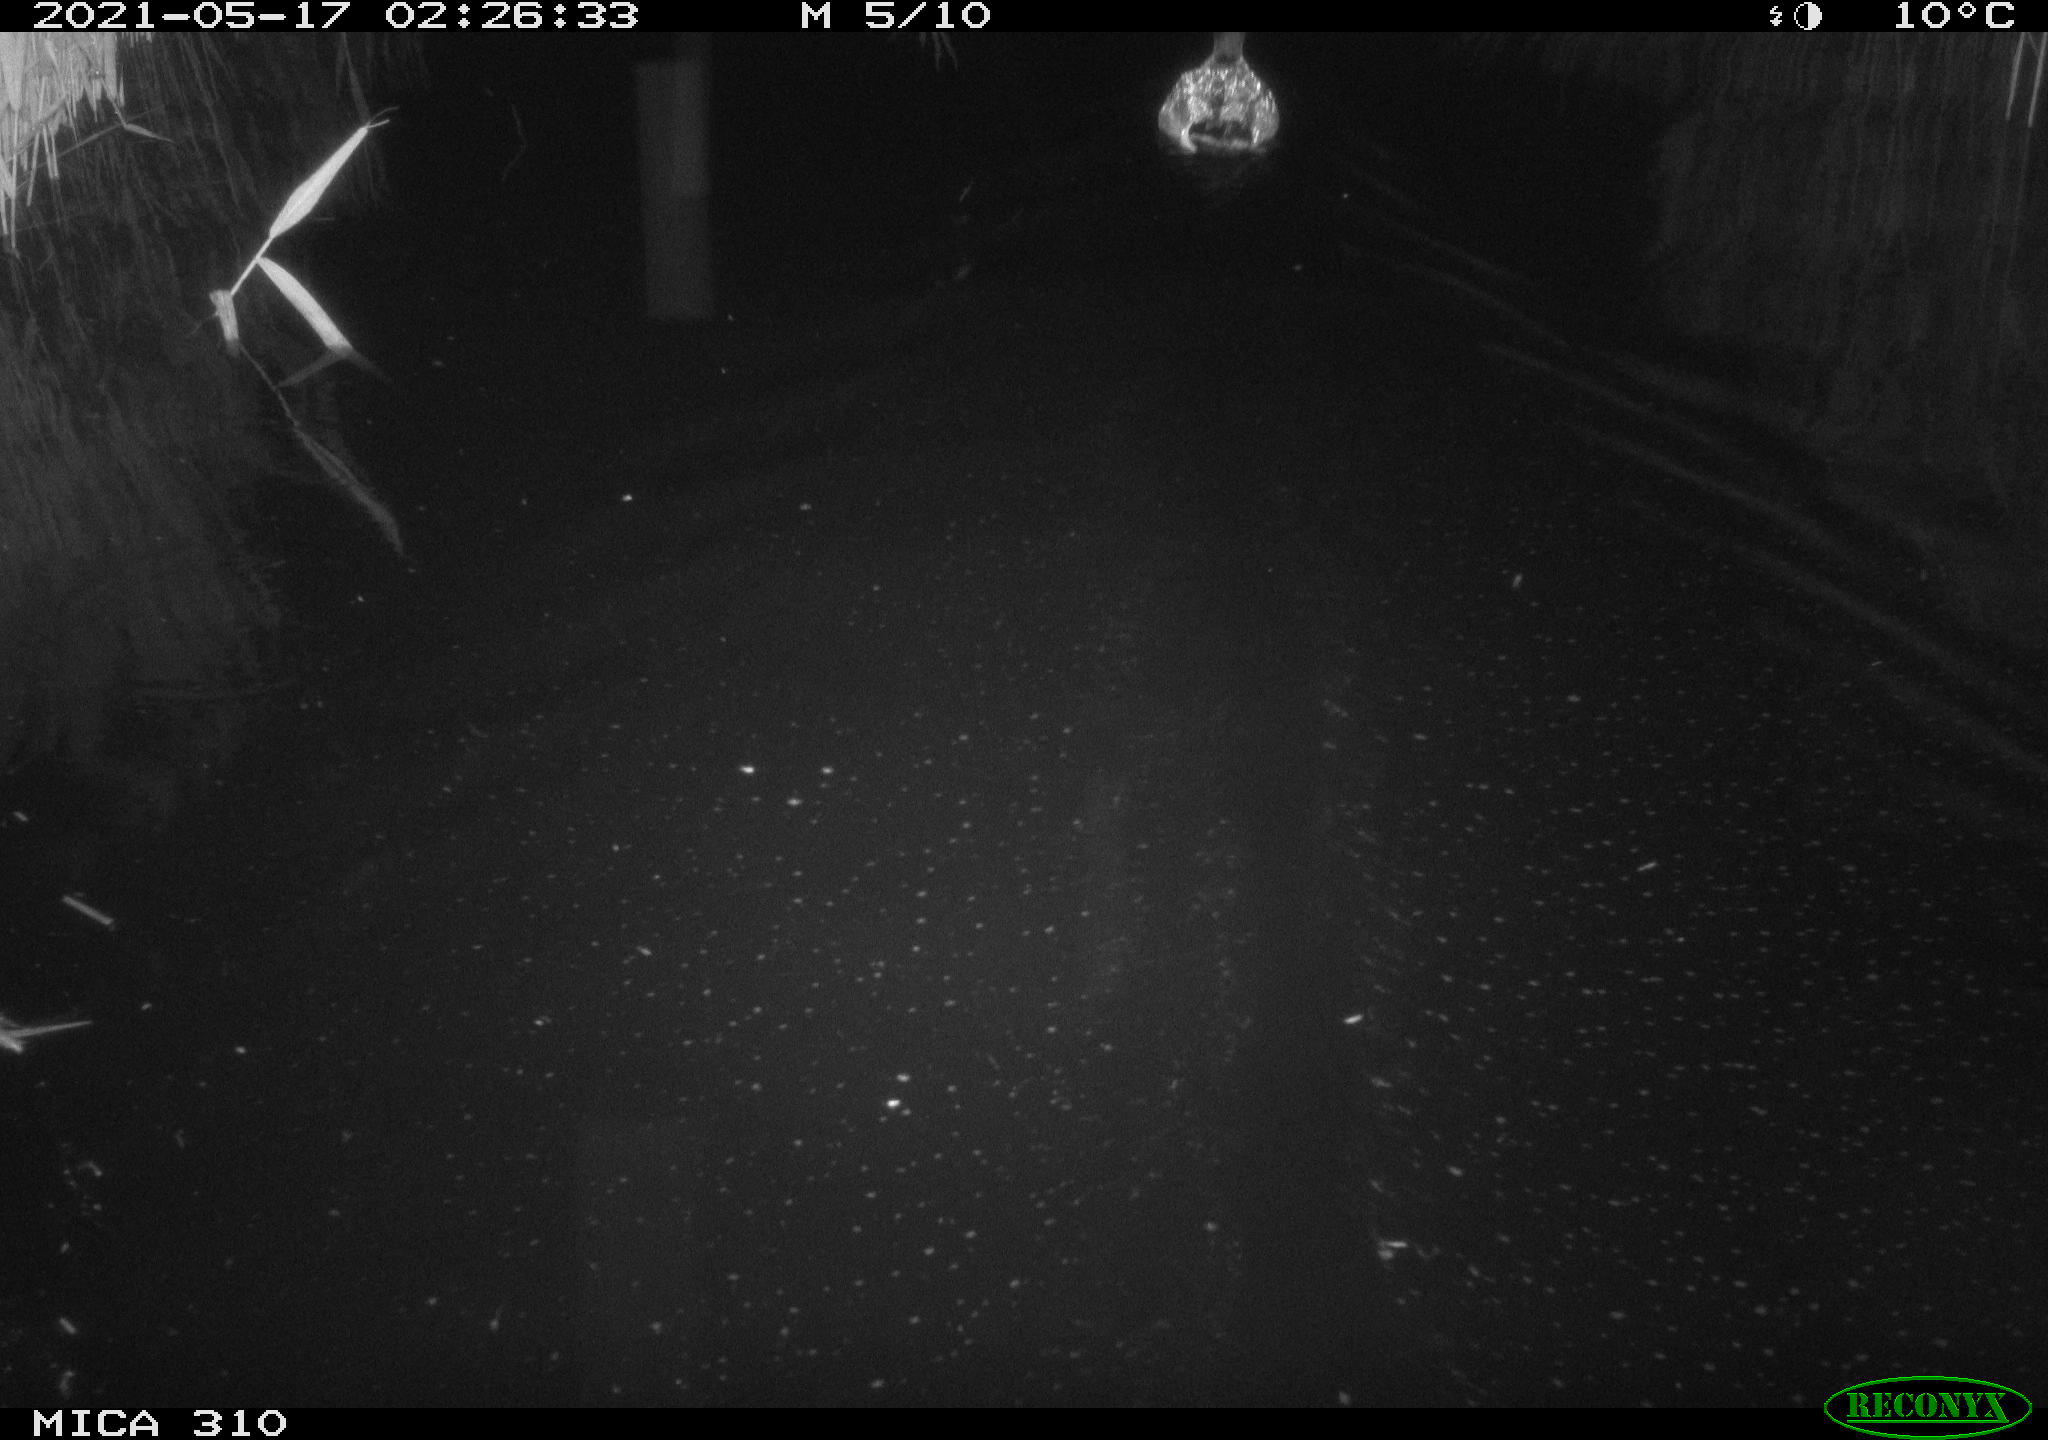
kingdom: Animalia
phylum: Chordata
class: Aves
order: Anseriformes
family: Anatidae
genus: Anas
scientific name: Anas platyrhynchos
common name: Mallard
